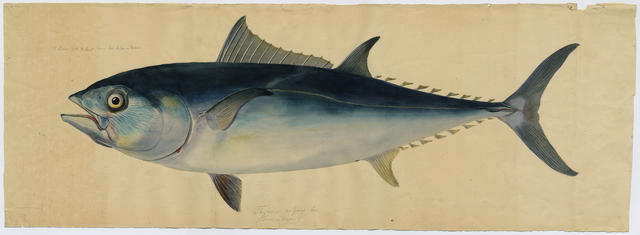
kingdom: Animalia
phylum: Chordata
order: Perciformes
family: Scombridae
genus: Thunnus
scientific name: Thunnus thynnus
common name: Bluefin tuna
